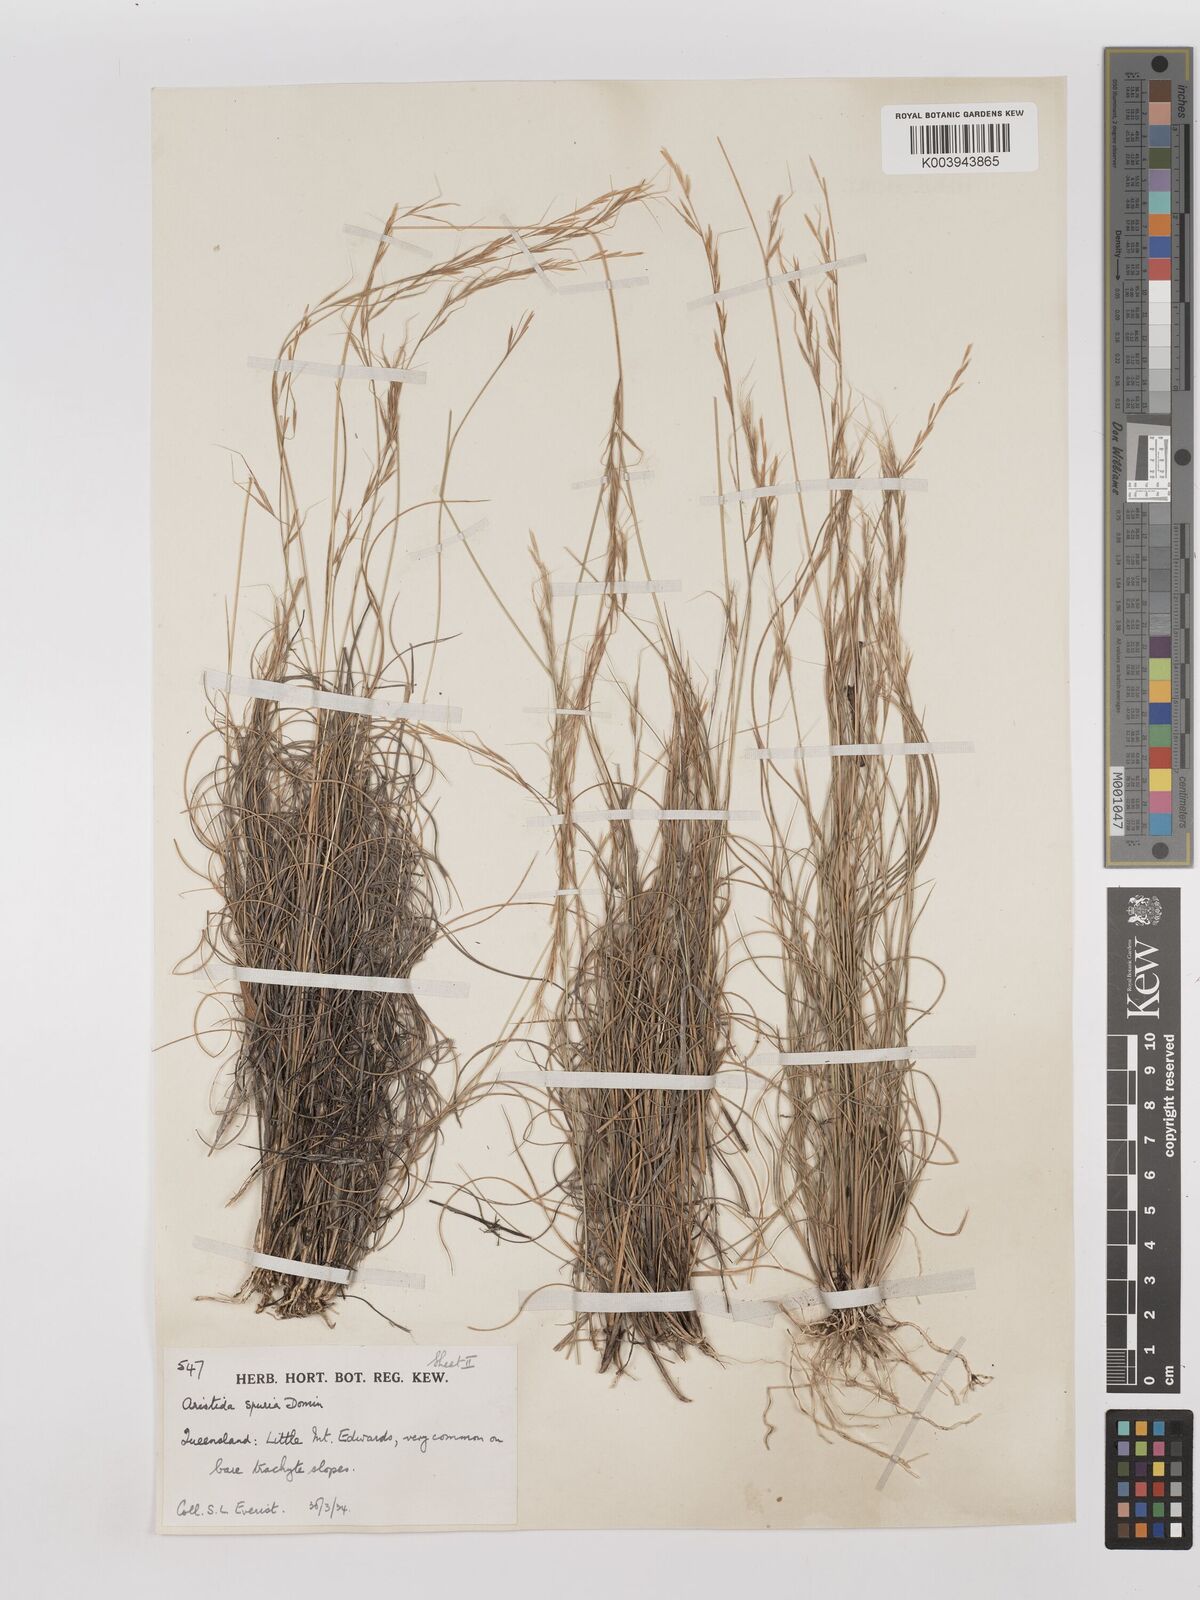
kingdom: Plantae
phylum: Tracheophyta
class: Liliopsida
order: Poales
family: Poaceae
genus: Aristida
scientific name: Aristida spuria
